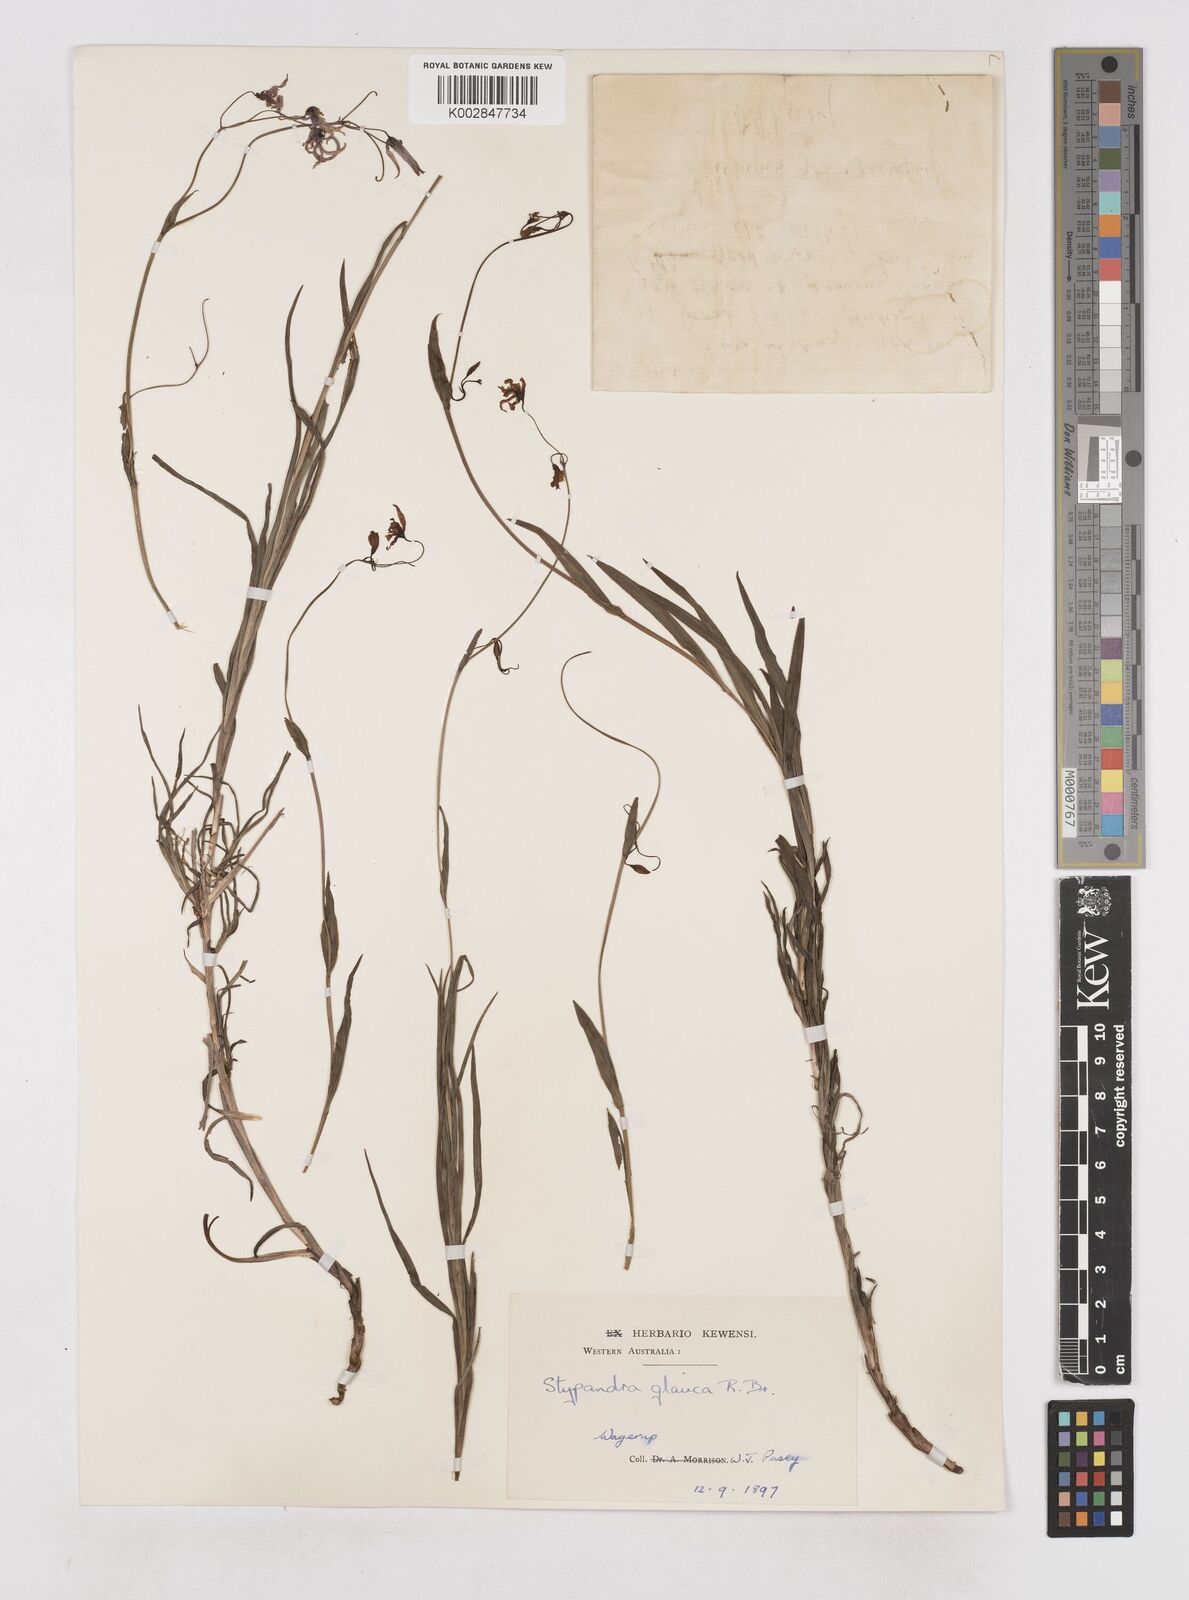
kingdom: Plantae
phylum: Tracheophyta
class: Liliopsida
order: Asparagales
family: Asphodelaceae
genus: Stypandra
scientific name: Stypandra glauca
